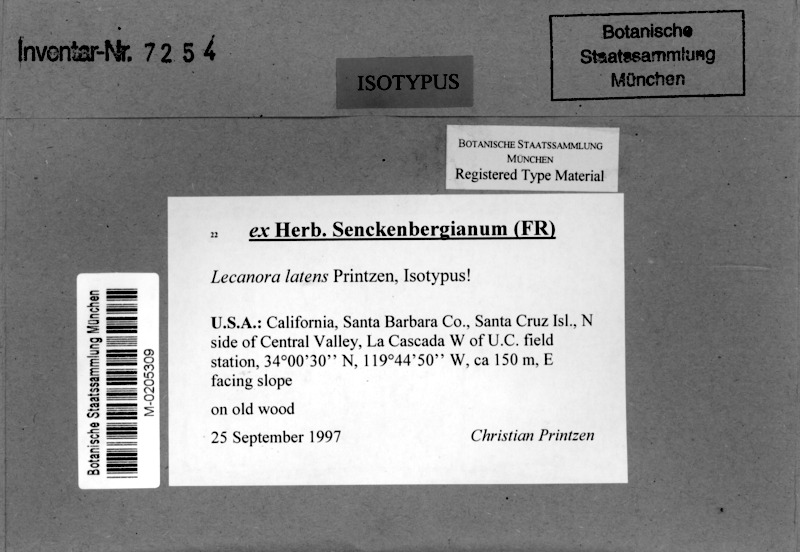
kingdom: Fungi
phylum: Ascomycota
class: Lecanoromycetes
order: Lecanorales
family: Lecanoraceae
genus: Lecanora
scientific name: Lecanora latens
